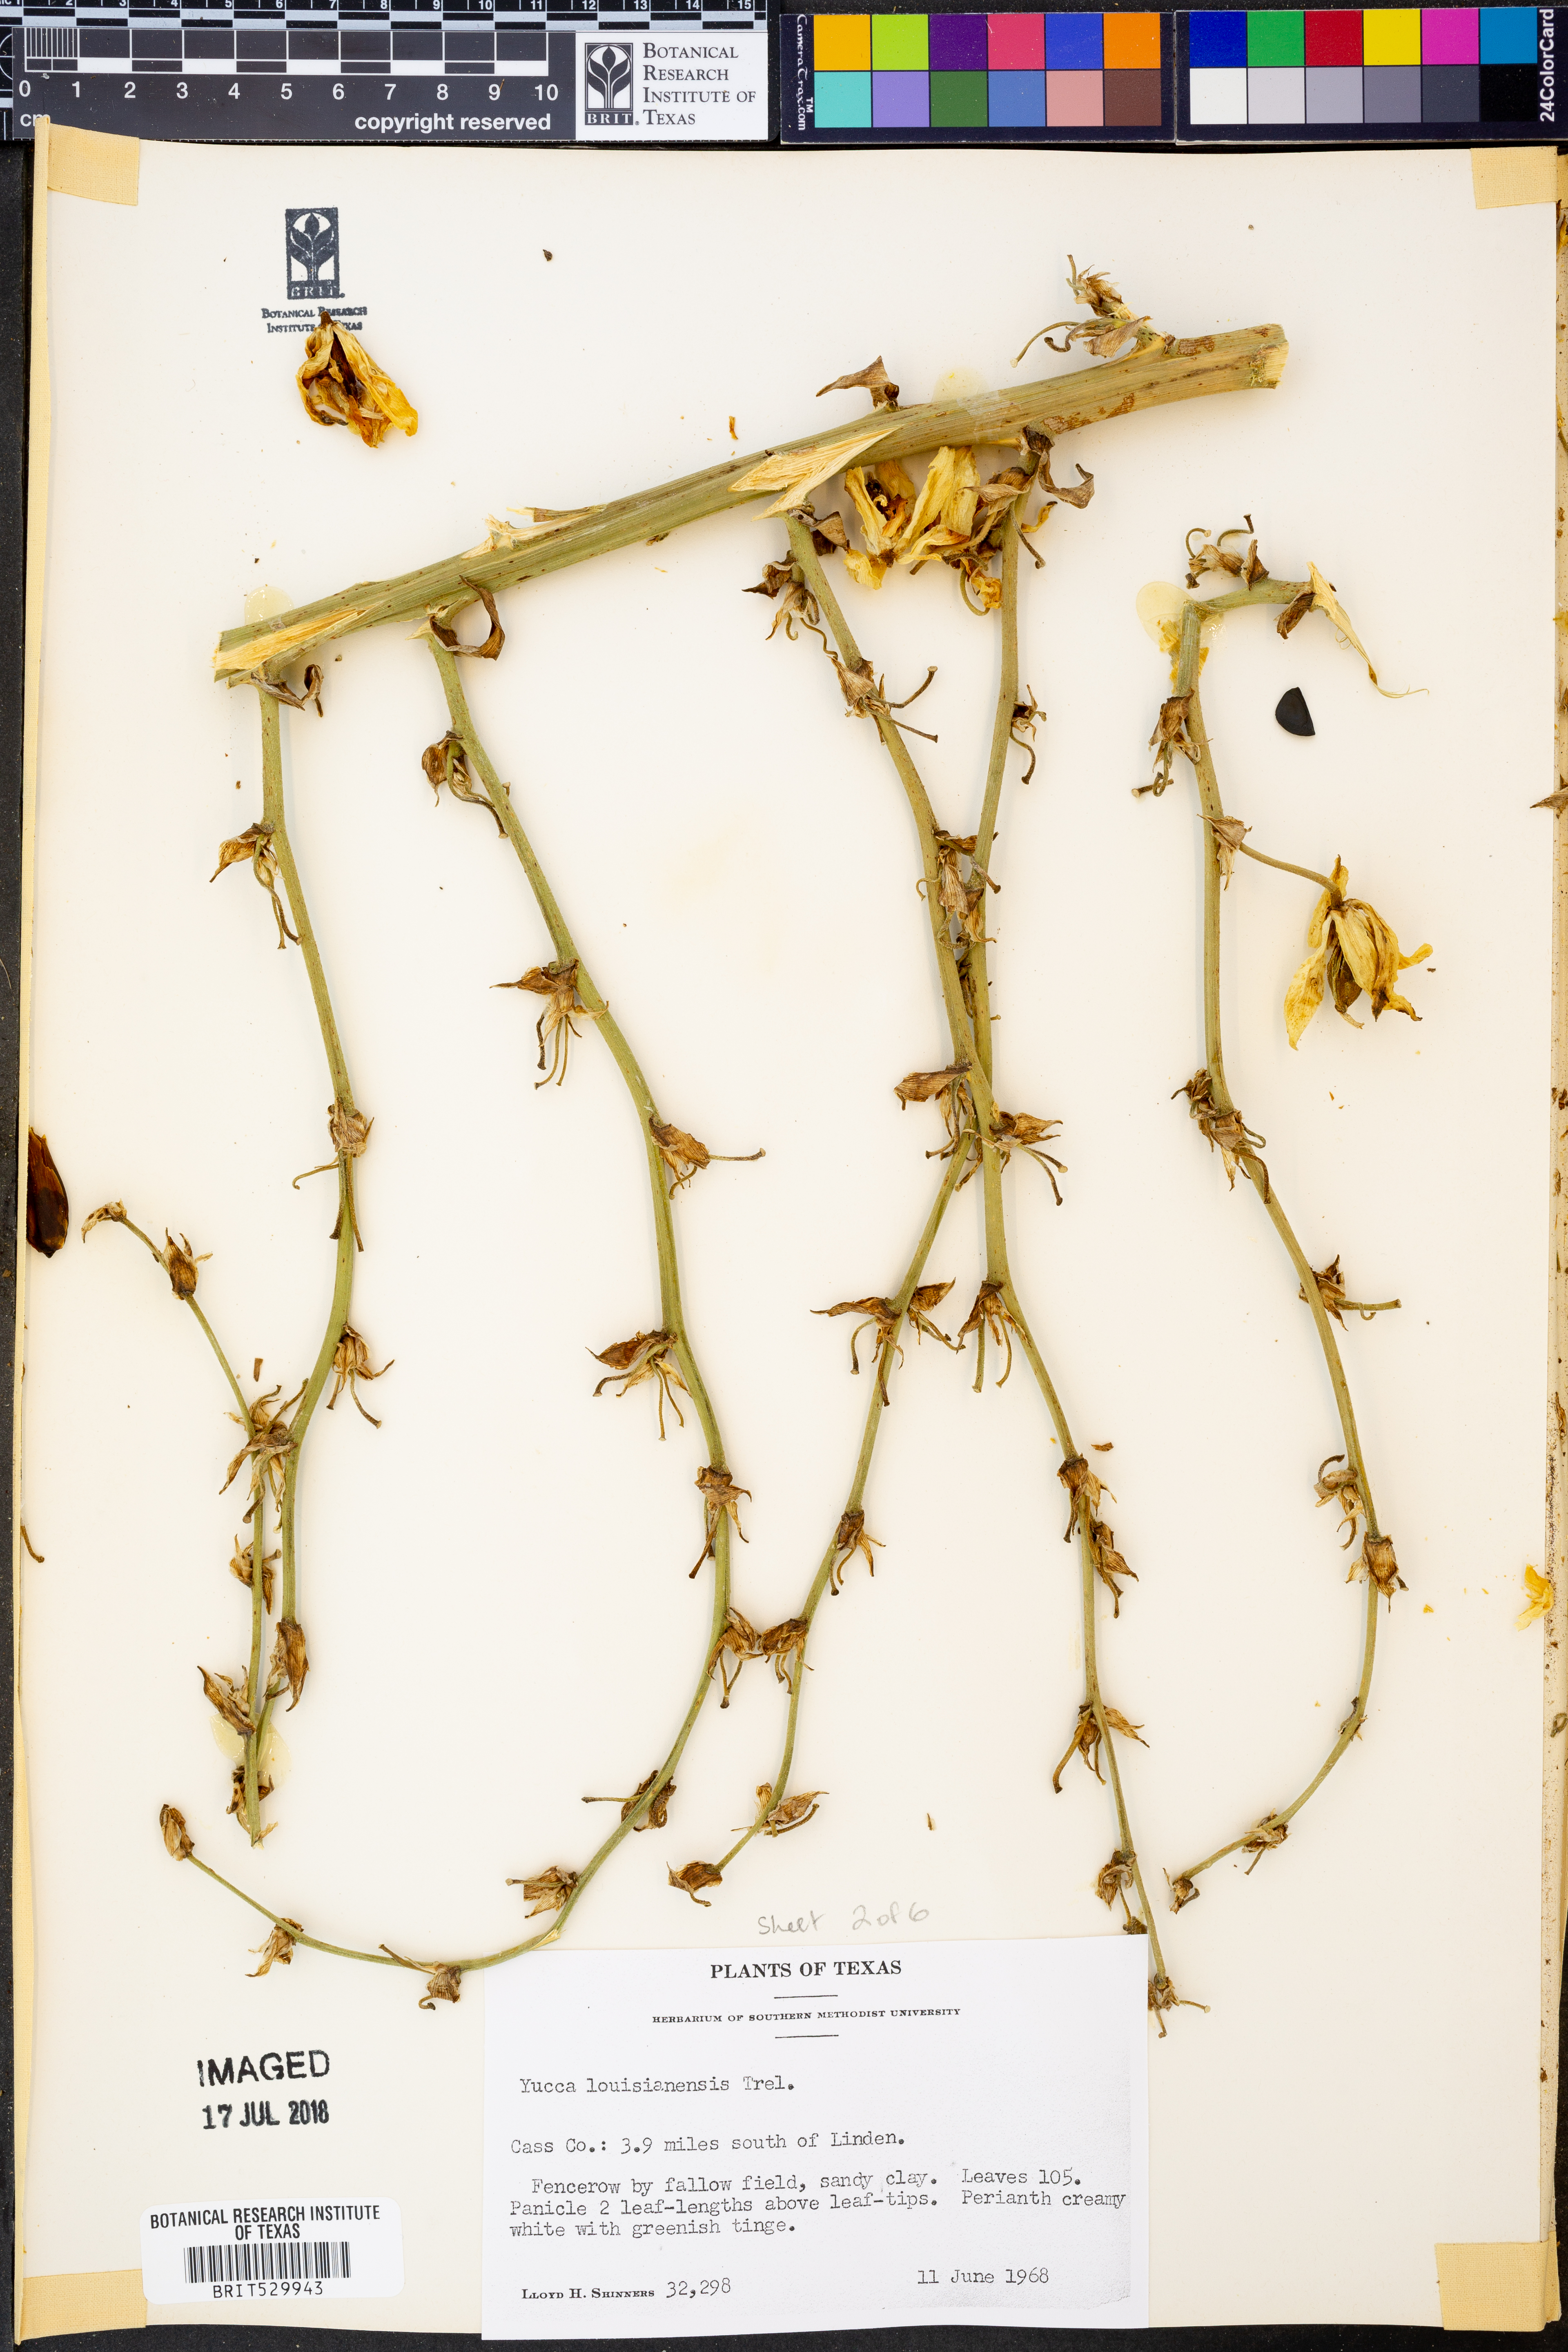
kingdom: Plantae
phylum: Tracheophyta
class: Liliopsida
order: Asparagales
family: Asparagaceae
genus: Yucca
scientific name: Yucca flaccida
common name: Adam's-needle
